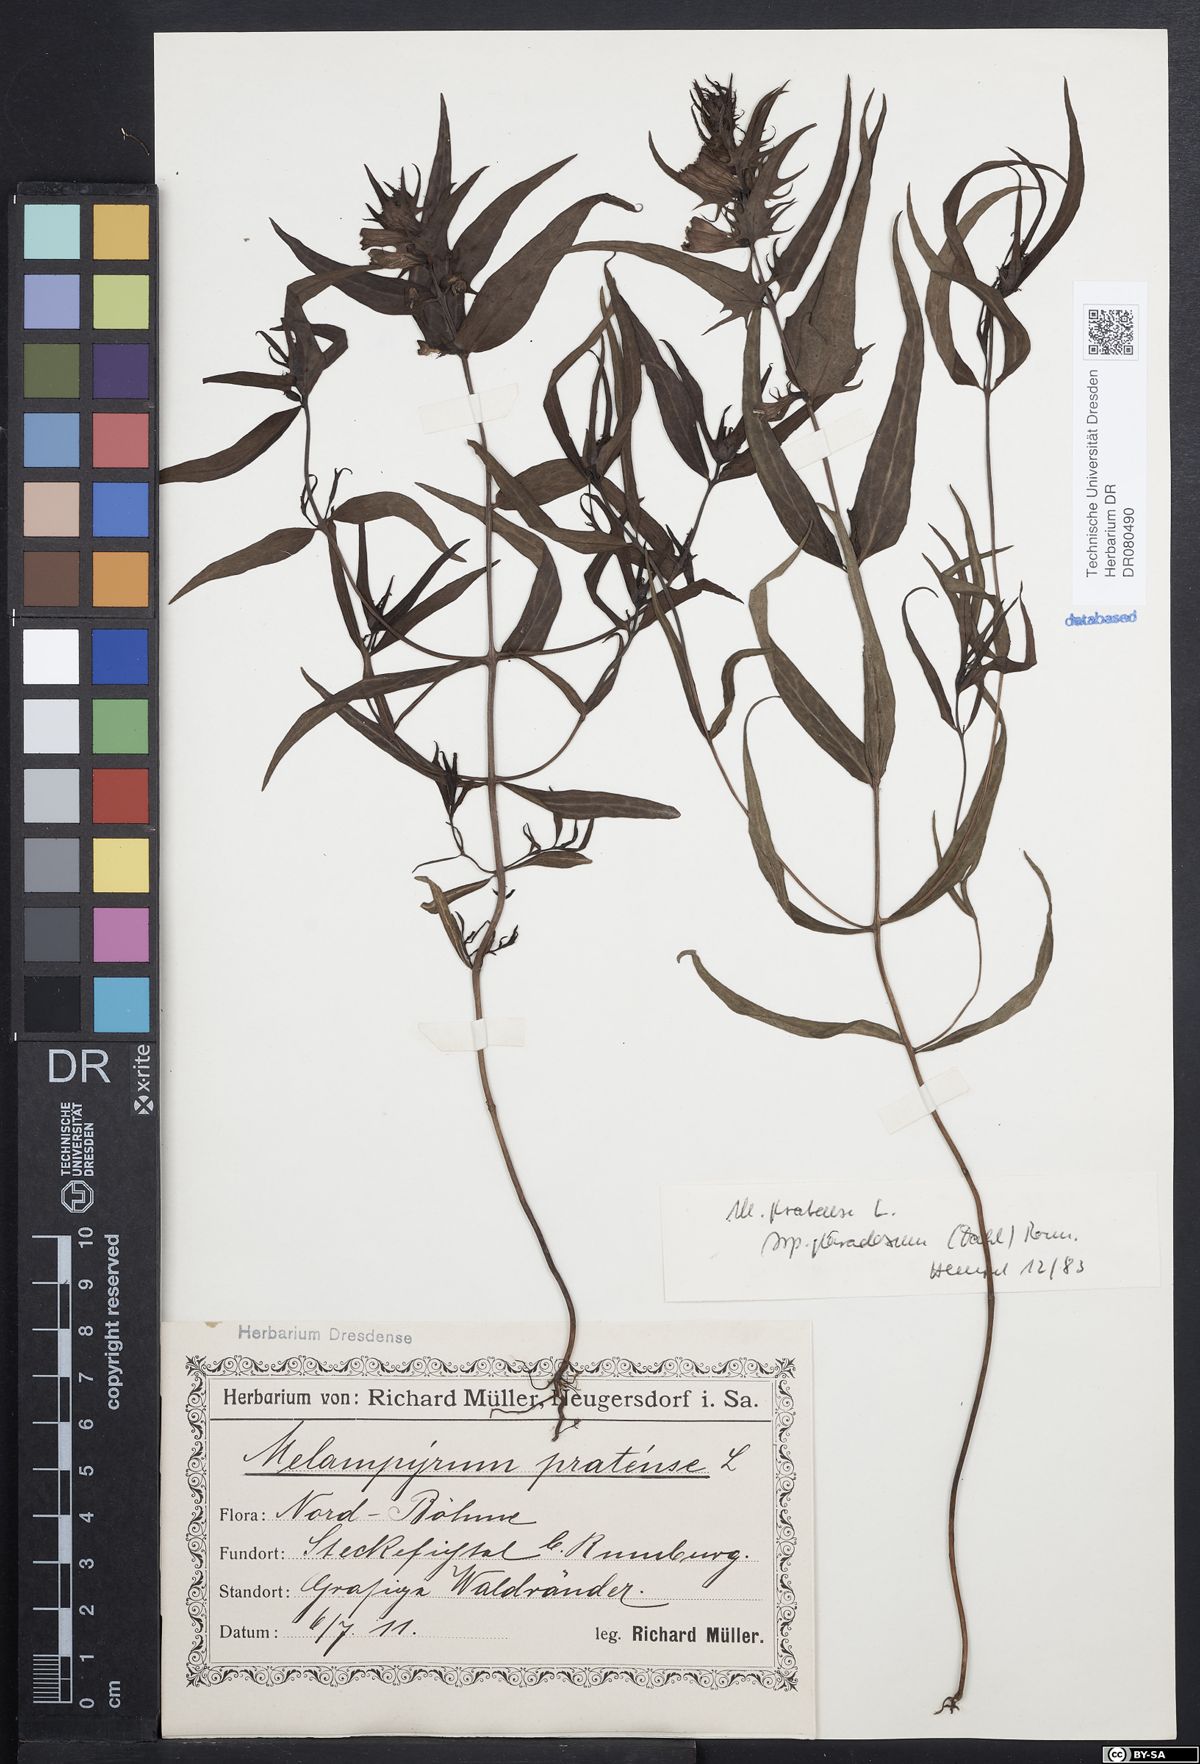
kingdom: Plantae
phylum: Tracheophyta
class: Magnoliopsida
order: Lamiales
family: Orobanchaceae
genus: Melampyrum
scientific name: Melampyrum pratense
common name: Common cow-wheat
